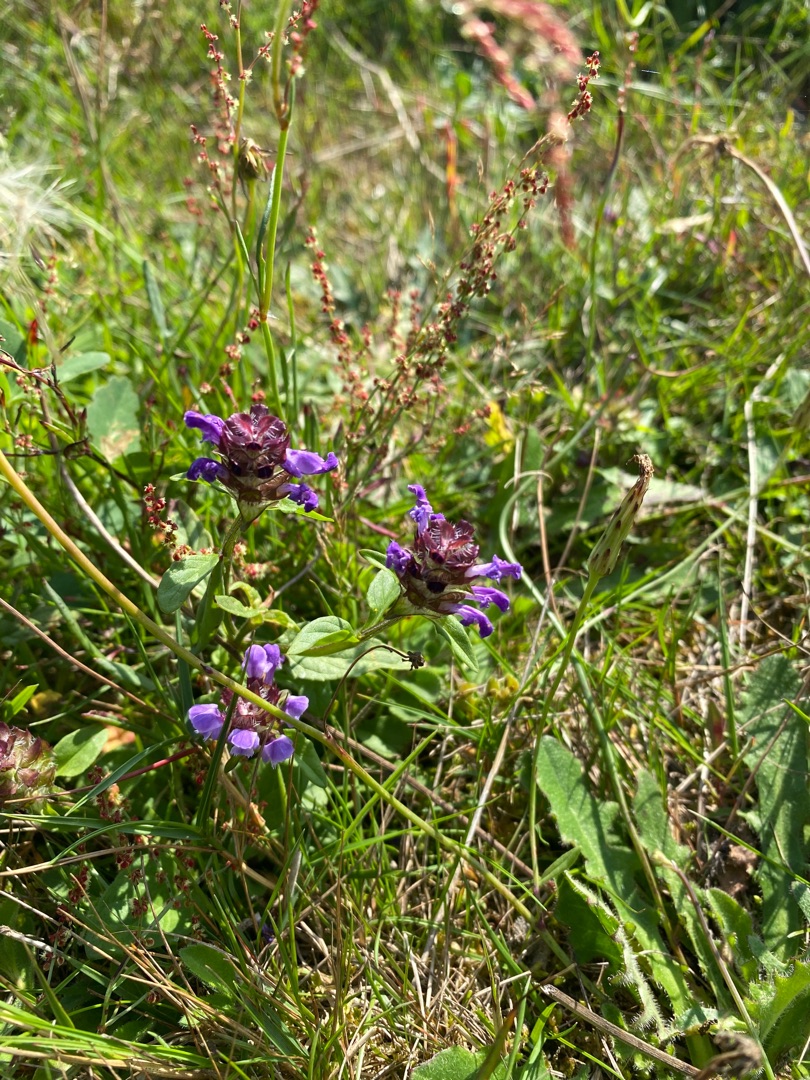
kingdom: Plantae
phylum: Tracheophyta
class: Magnoliopsida
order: Lamiales
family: Lamiaceae
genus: Prunella
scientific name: Prunella vulgaris
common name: Almindelig brunelle
